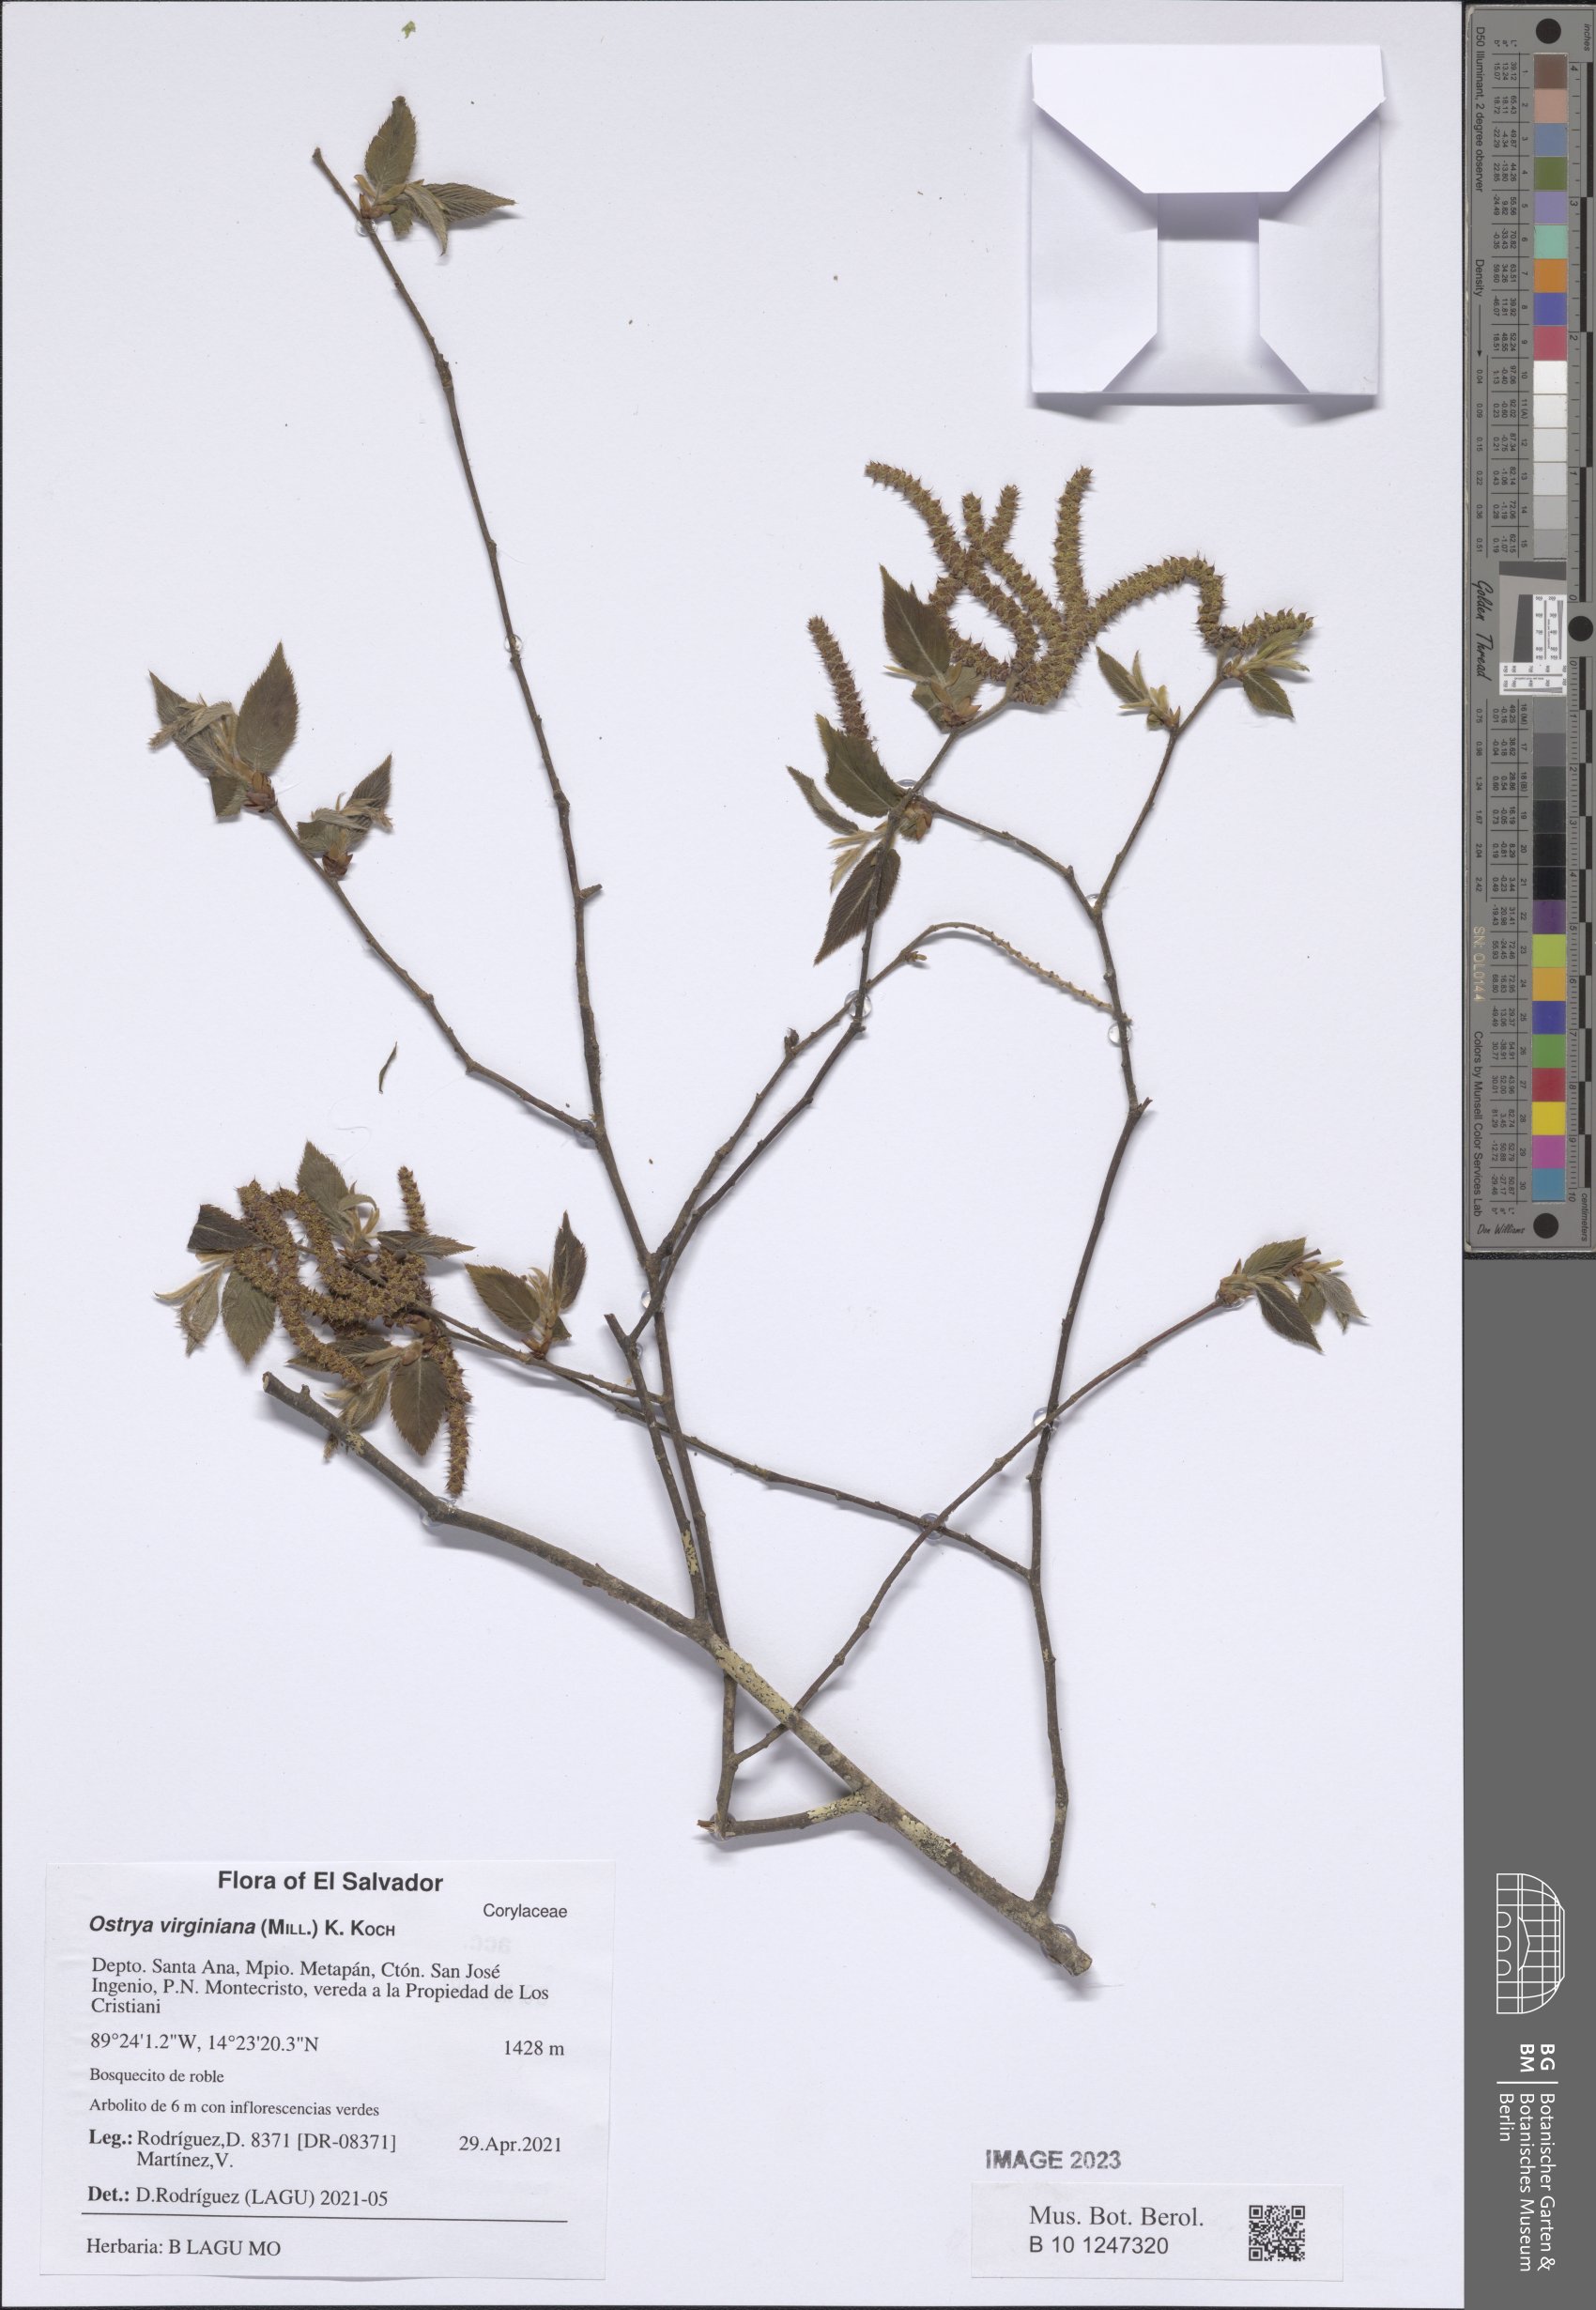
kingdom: Plantae
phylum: Tracheophyta
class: Magnoliopsida
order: Fagales
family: Betulaceae
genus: Ostrya
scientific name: Ostrya virginiana
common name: Ironwood
